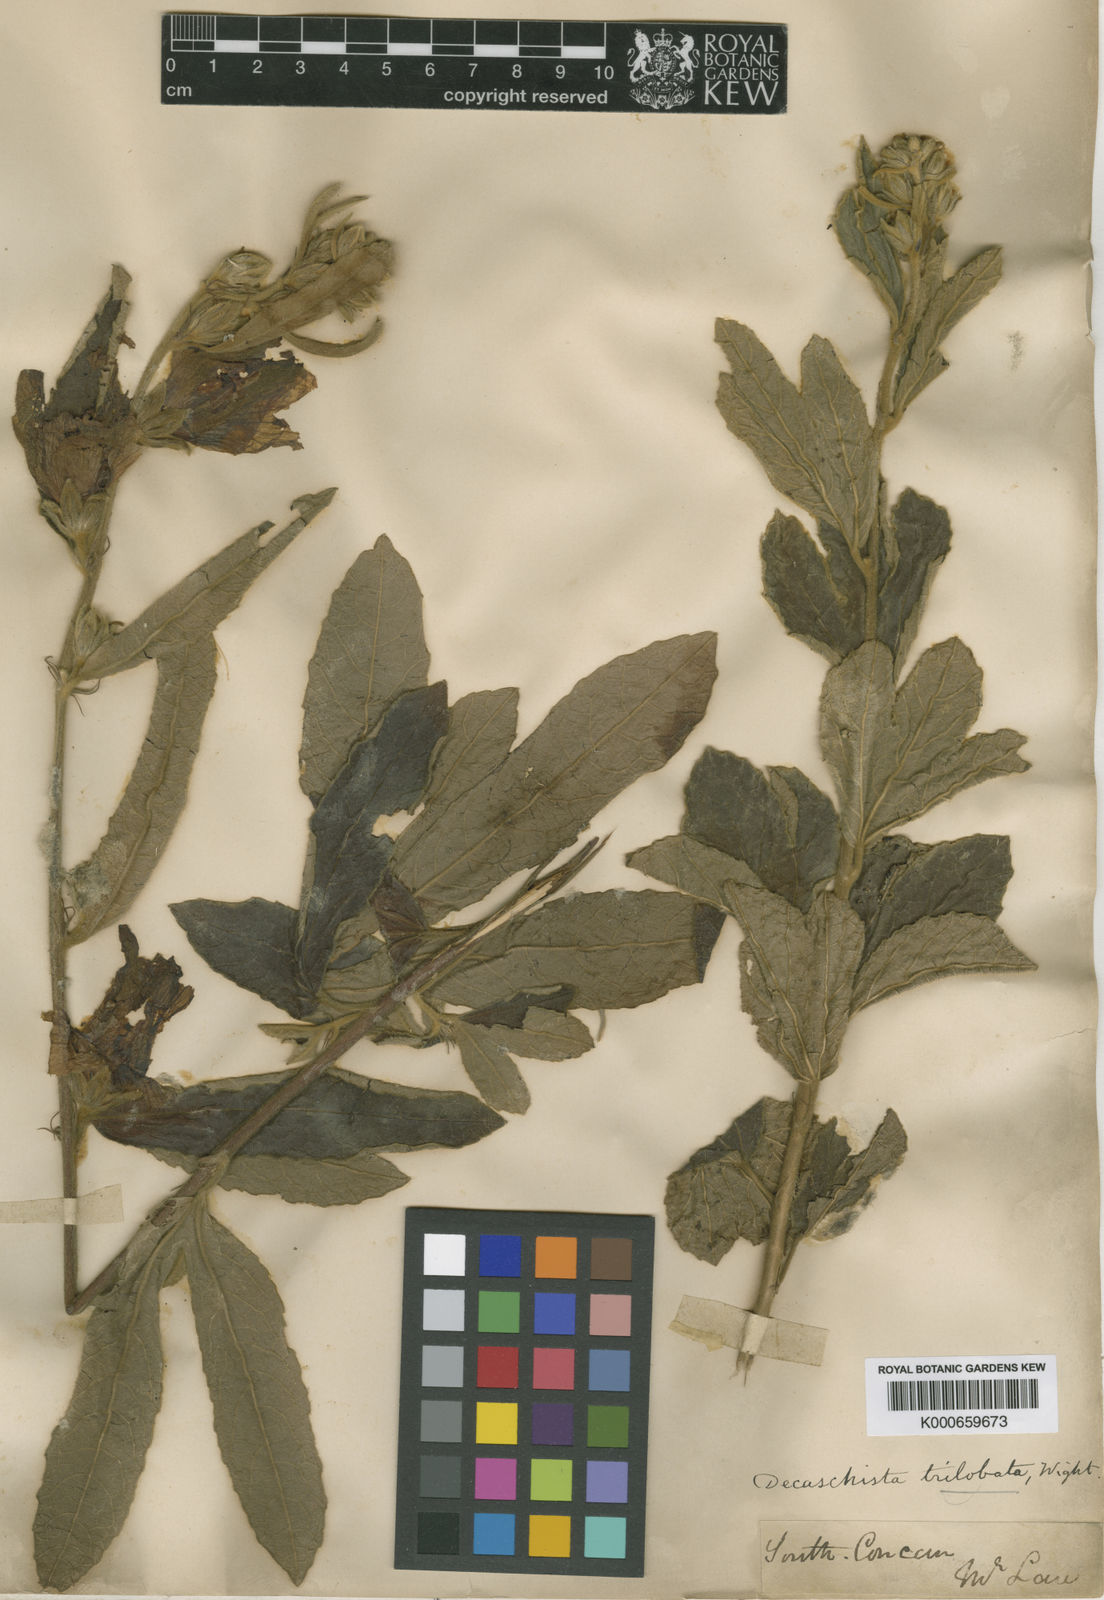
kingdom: Plantae
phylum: Tracheophyta
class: Magnoliopsida
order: Malvales
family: Malvaceae
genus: Decaschistia
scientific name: Decaschistia trilobata
